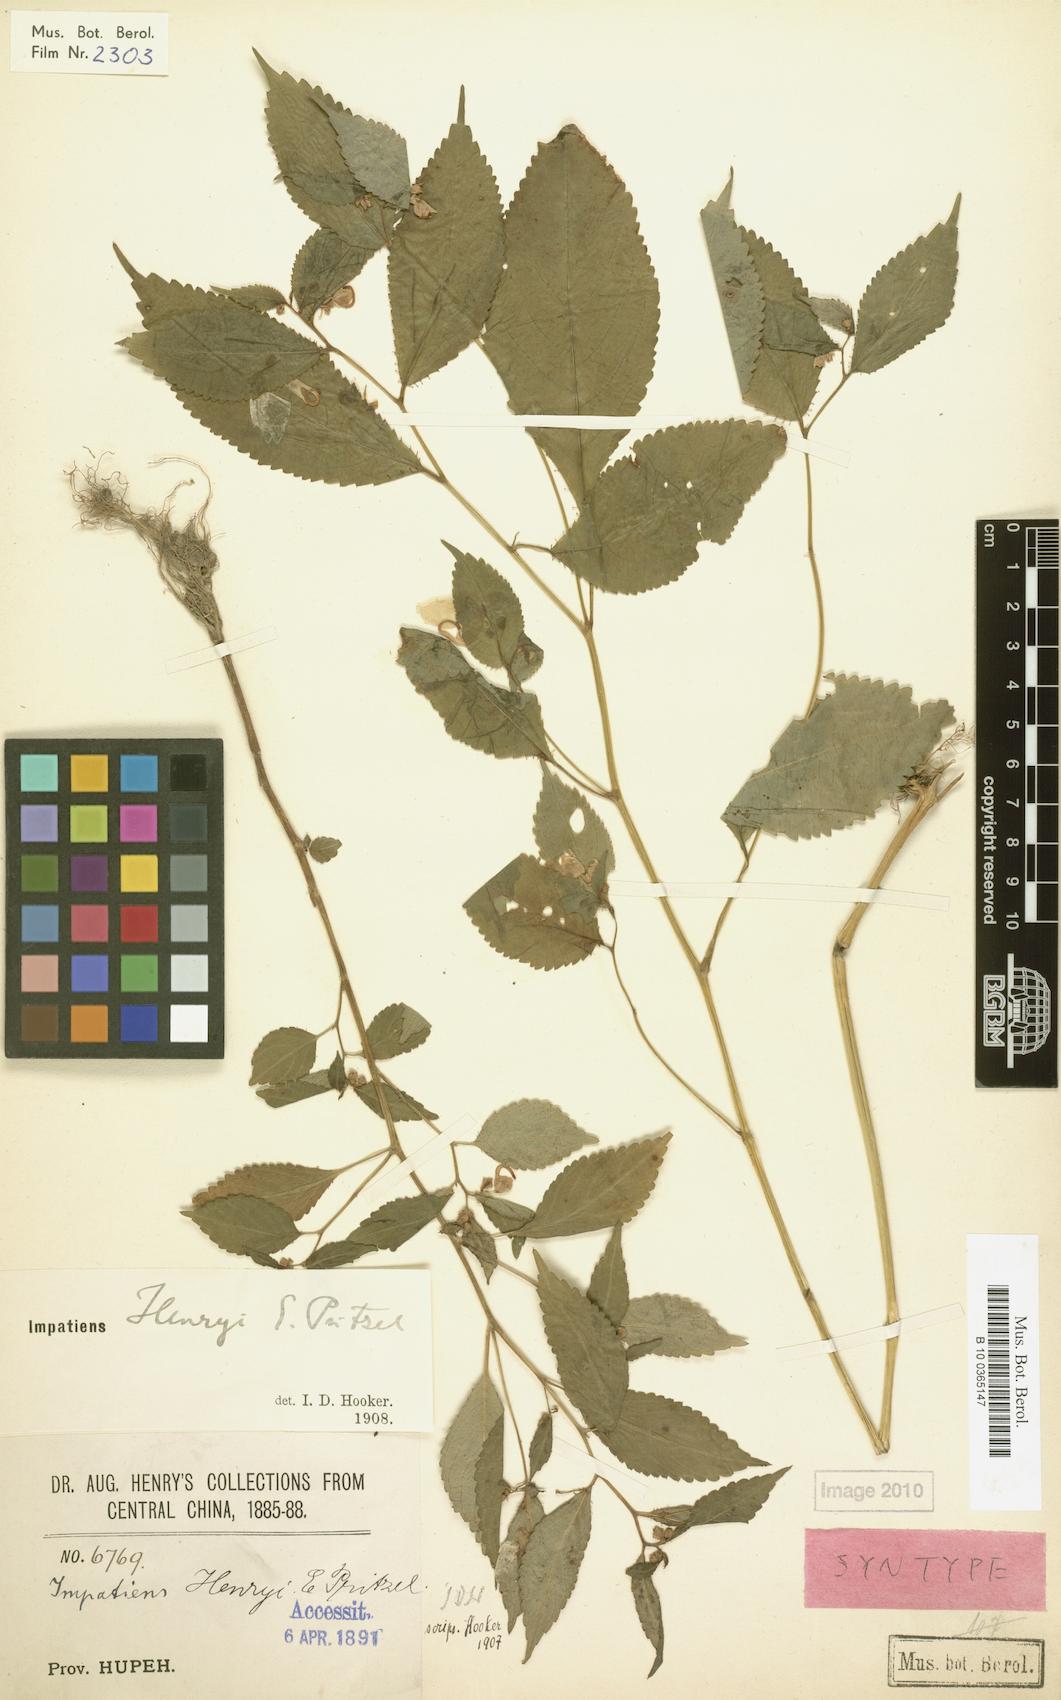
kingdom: Plantae
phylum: Tracheophyta
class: Magnoliopsida
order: Ericales
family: Balsaminaceae
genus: Impatiens
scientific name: Impatiens henryi
